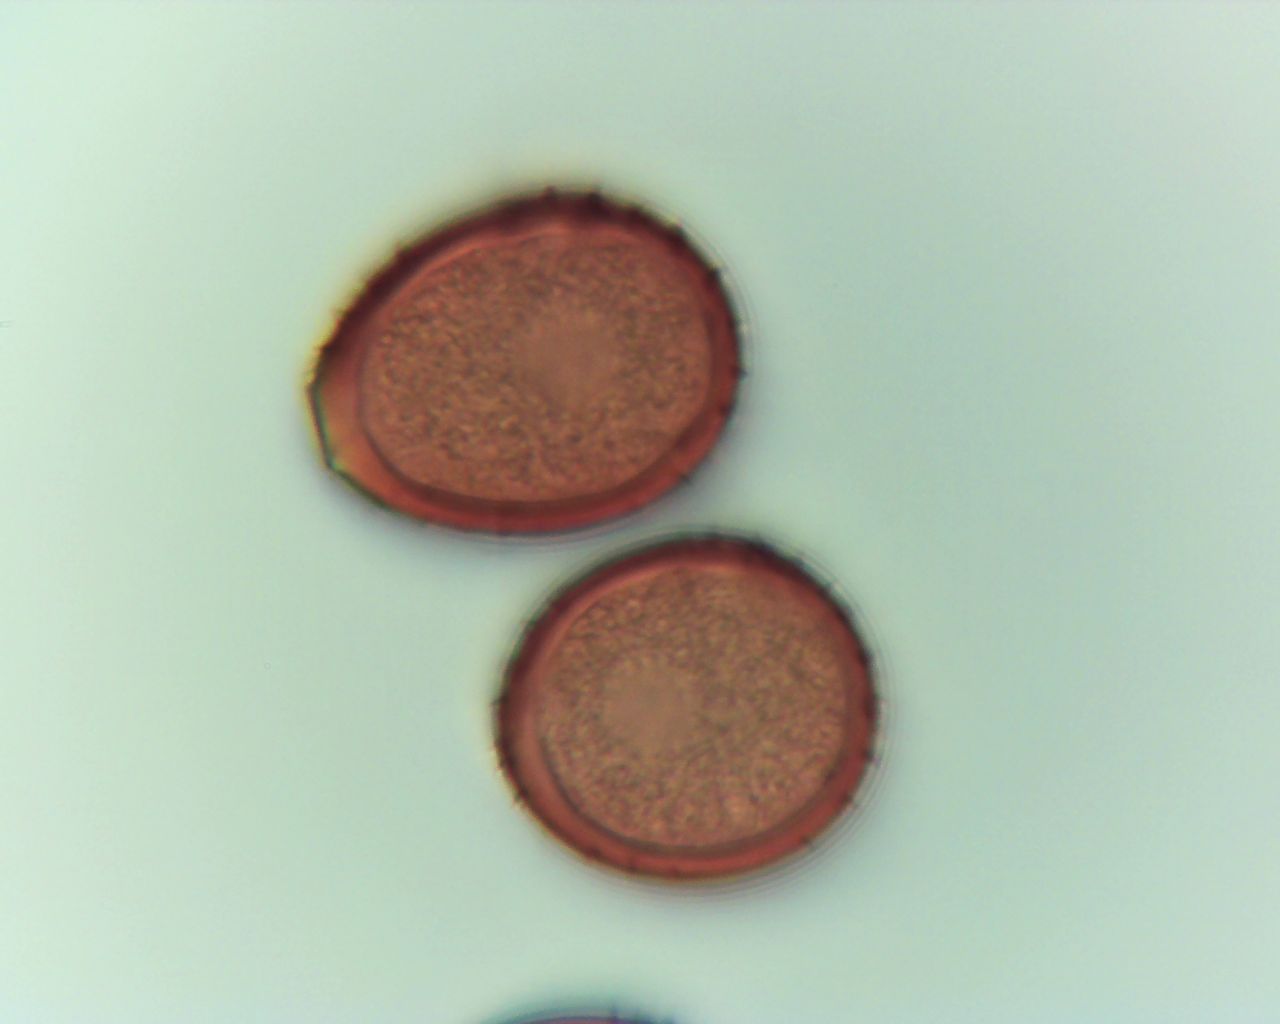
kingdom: Fungi
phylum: Basidiomycota
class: Pucciniomycetes
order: Pucciniales
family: Pucciniaceae
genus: Uromyces
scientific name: Uromyces acetosae
